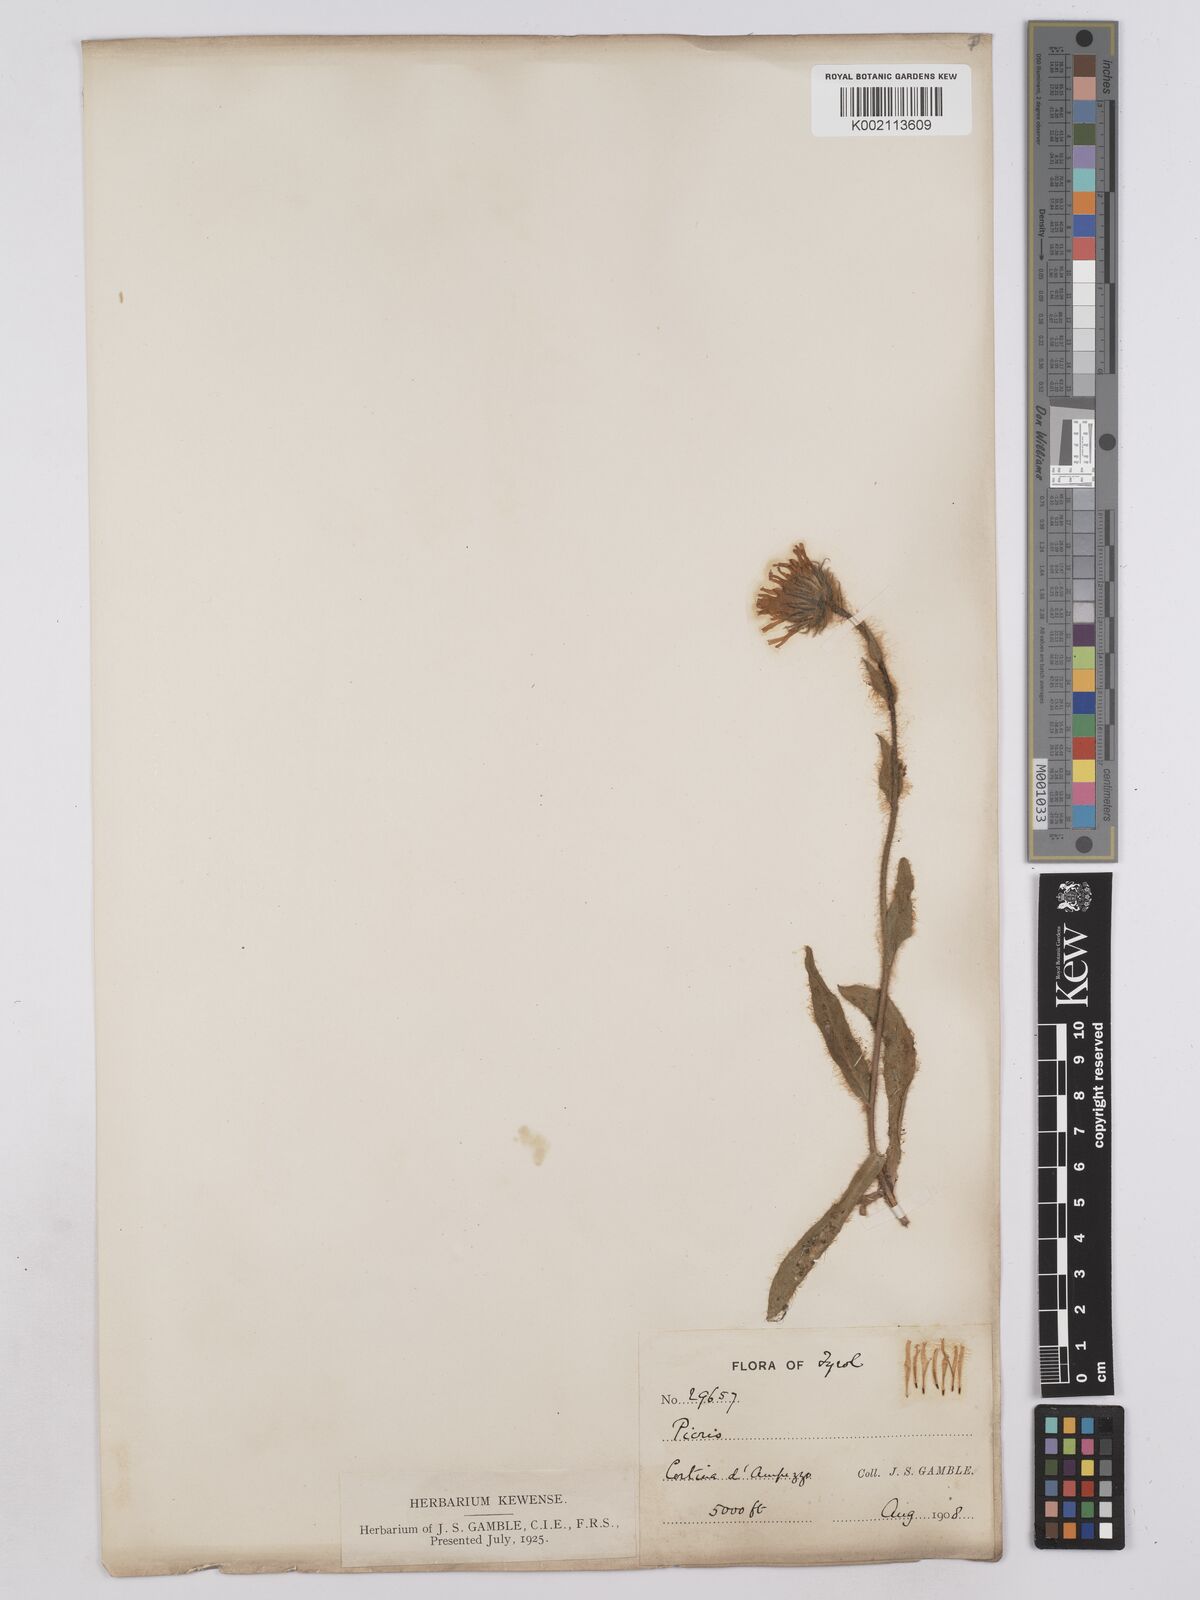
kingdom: Plantae
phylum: Tracheophyta
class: Magnoliopsida
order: Asterales
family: Asteraceae
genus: Hieracium
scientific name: Hieracium villosum
